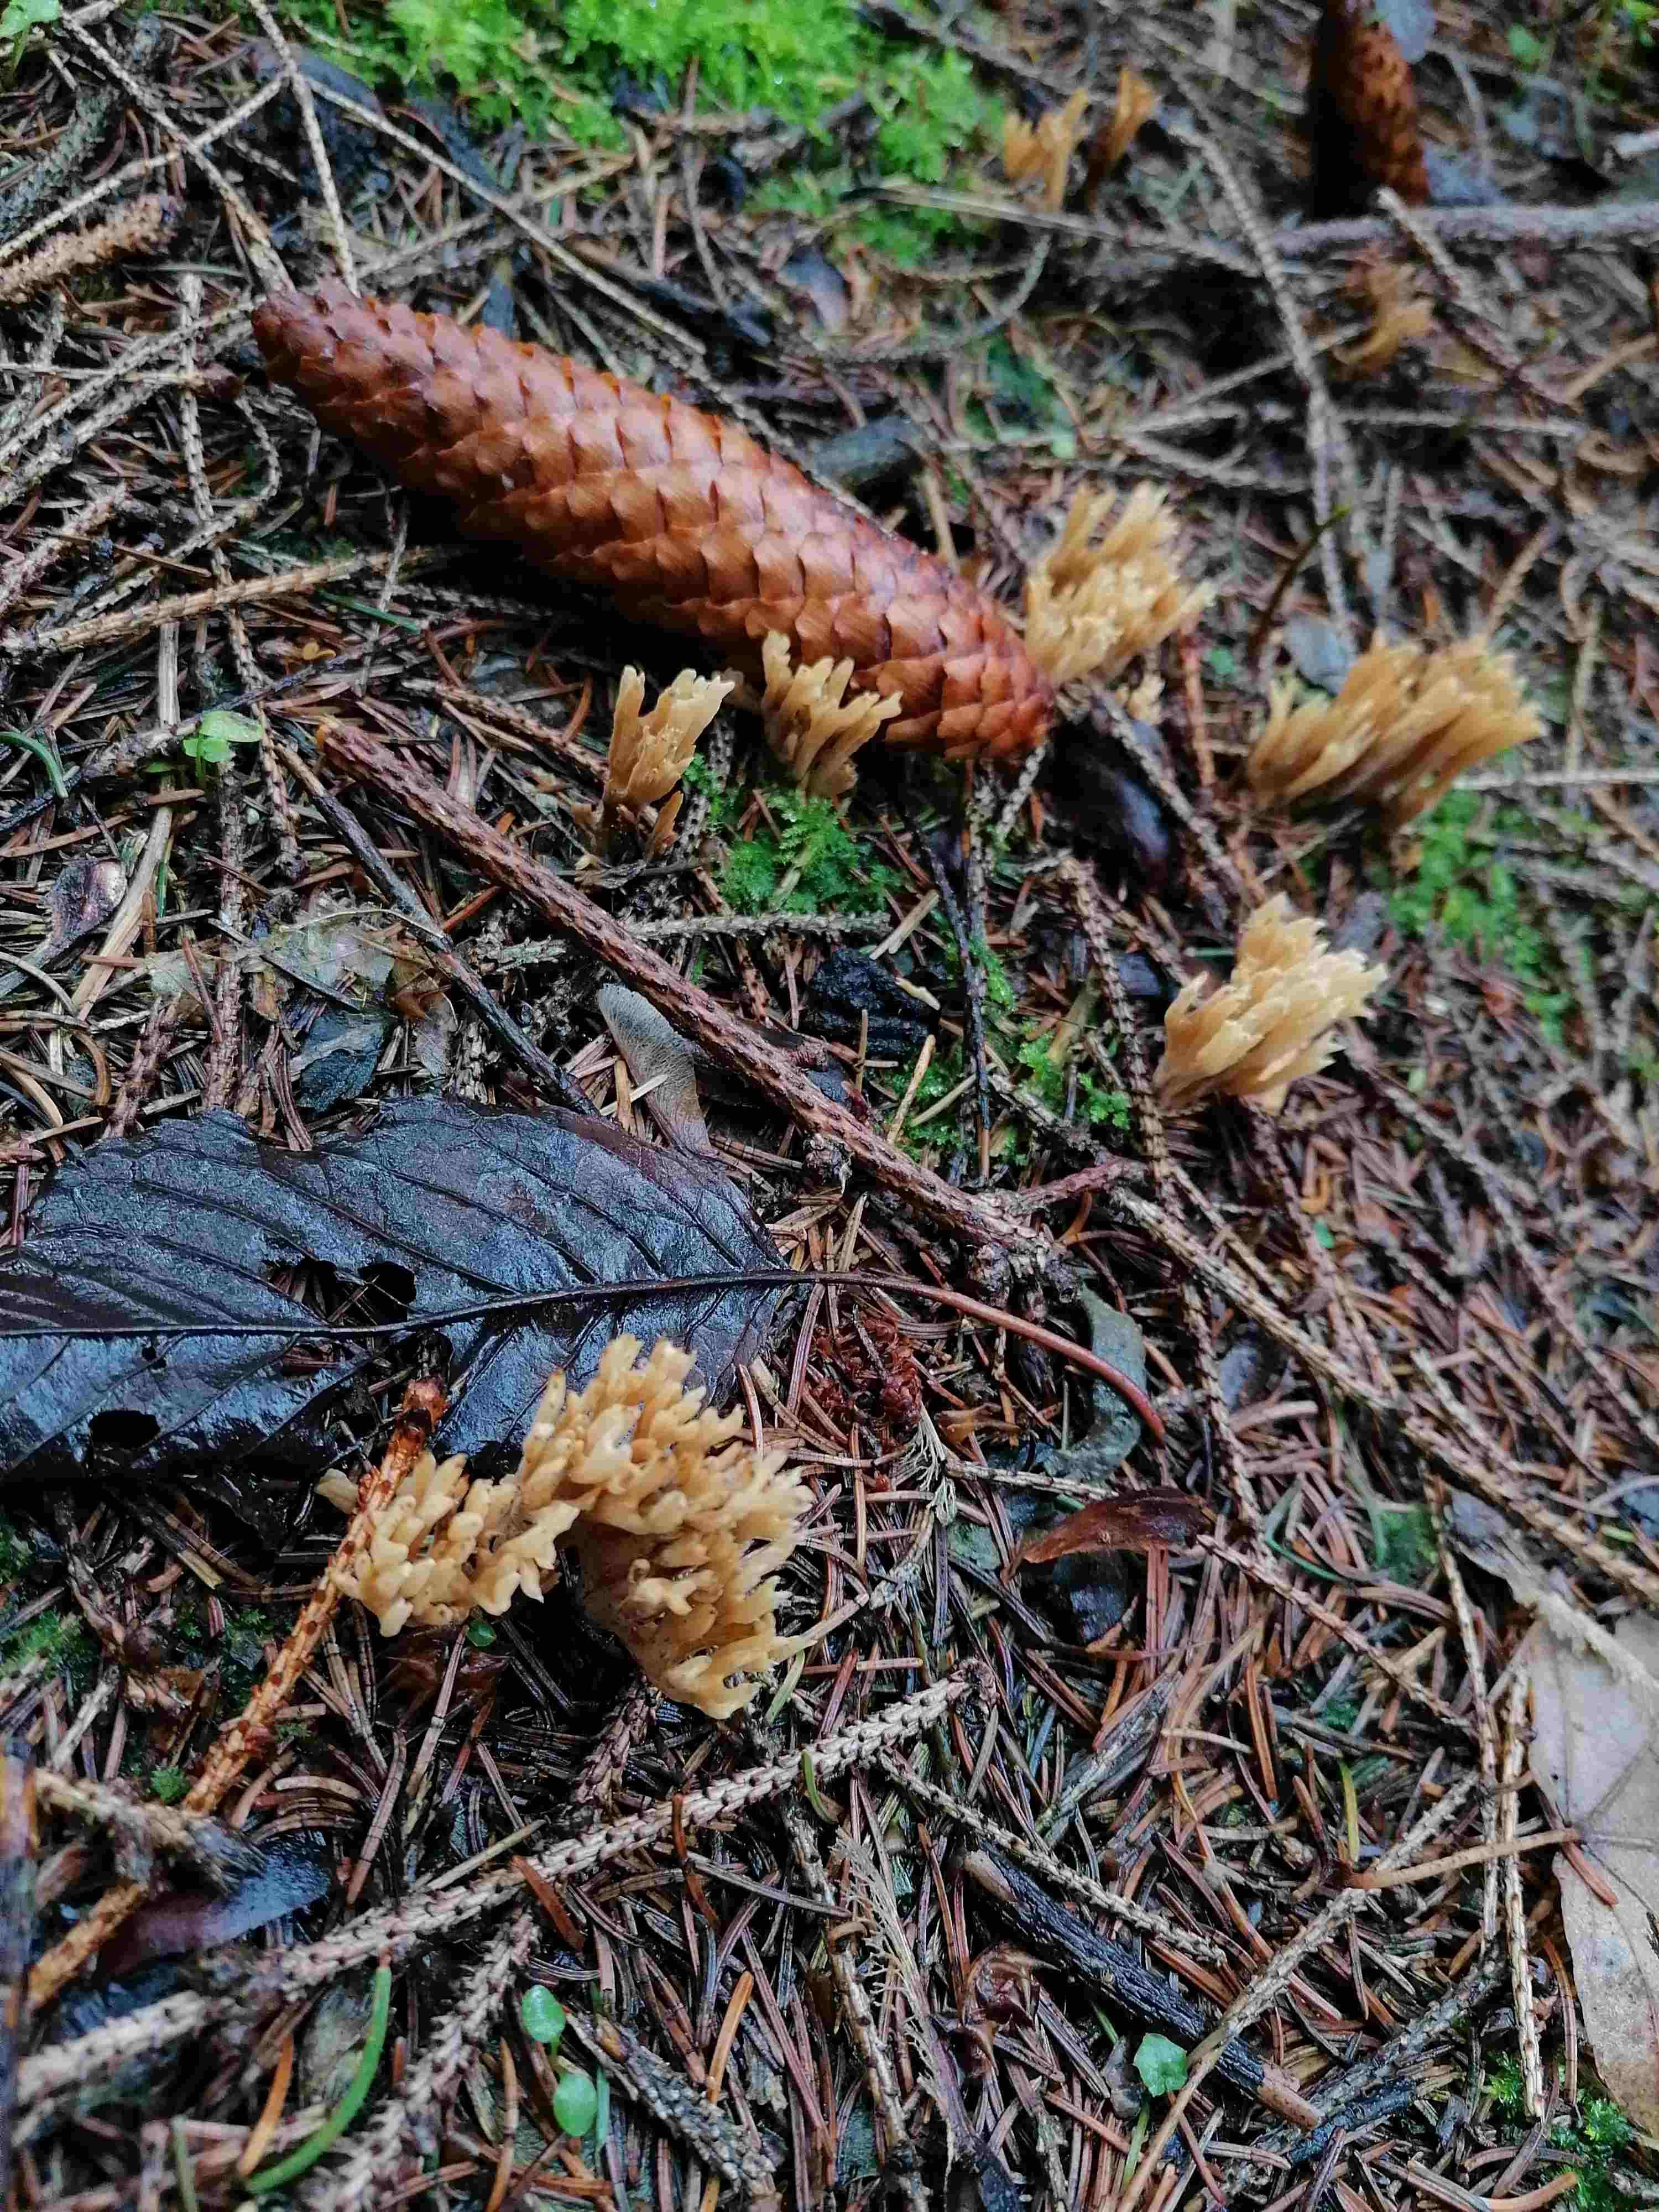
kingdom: Fungi
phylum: Basidiomycota
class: Agaricomycetes
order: Gomphales
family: Gomphaceae
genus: Phaeoclavulina
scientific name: Phaeoclavulina eumorpha
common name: gran-koralsvamp
